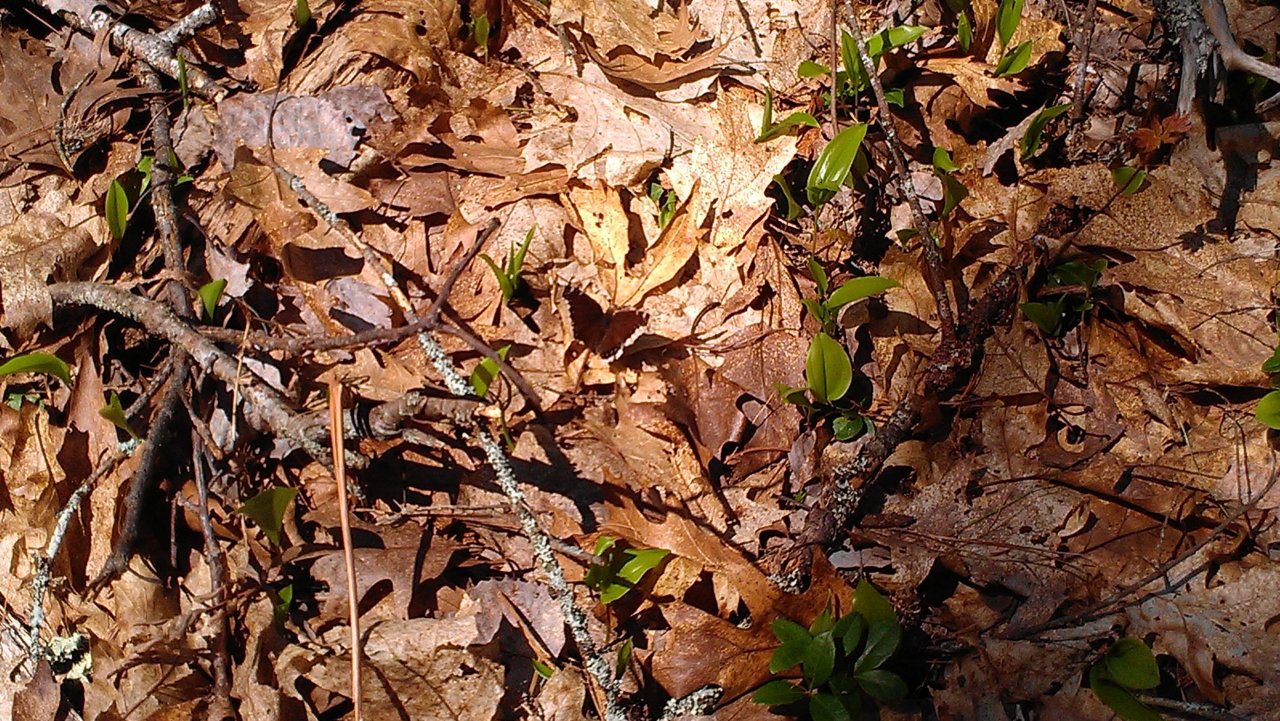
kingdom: Animalia
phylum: Arthropoda
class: Insecta
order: Lepidoptera
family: Nymphalidae
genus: Nymphalis
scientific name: Nymphalis antiopa
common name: Mourning Cloak
